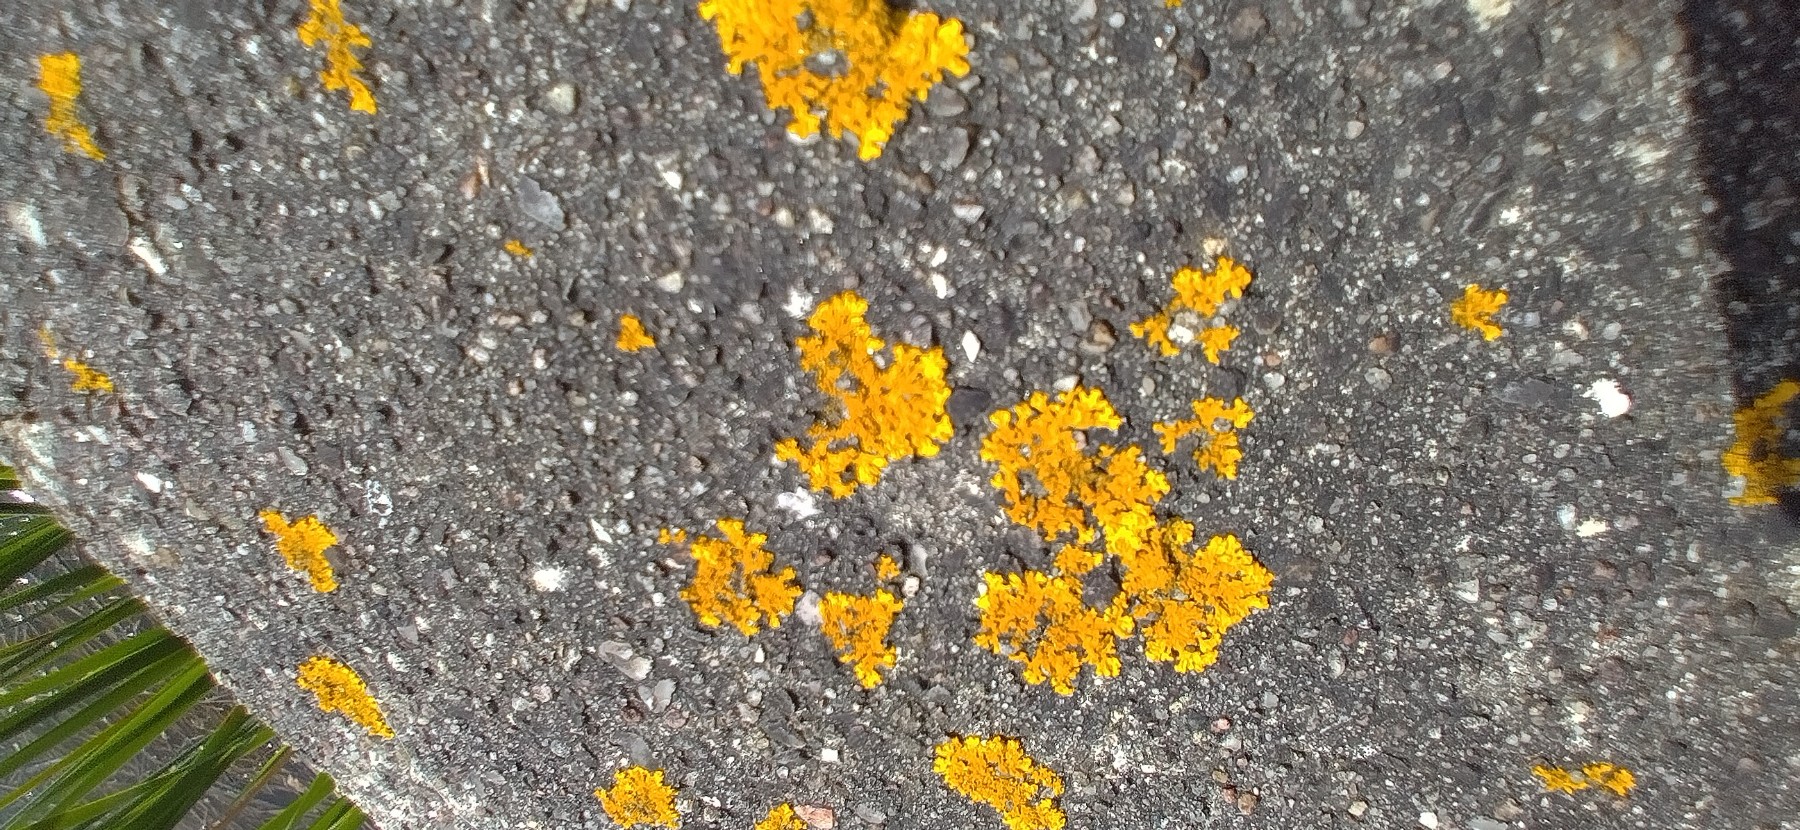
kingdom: Fungi
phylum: Ascomycota
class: Lecanoromycetes
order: Teloschistales
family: Teloschistaceae
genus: Xanthoria
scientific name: Xanthoria aureola
